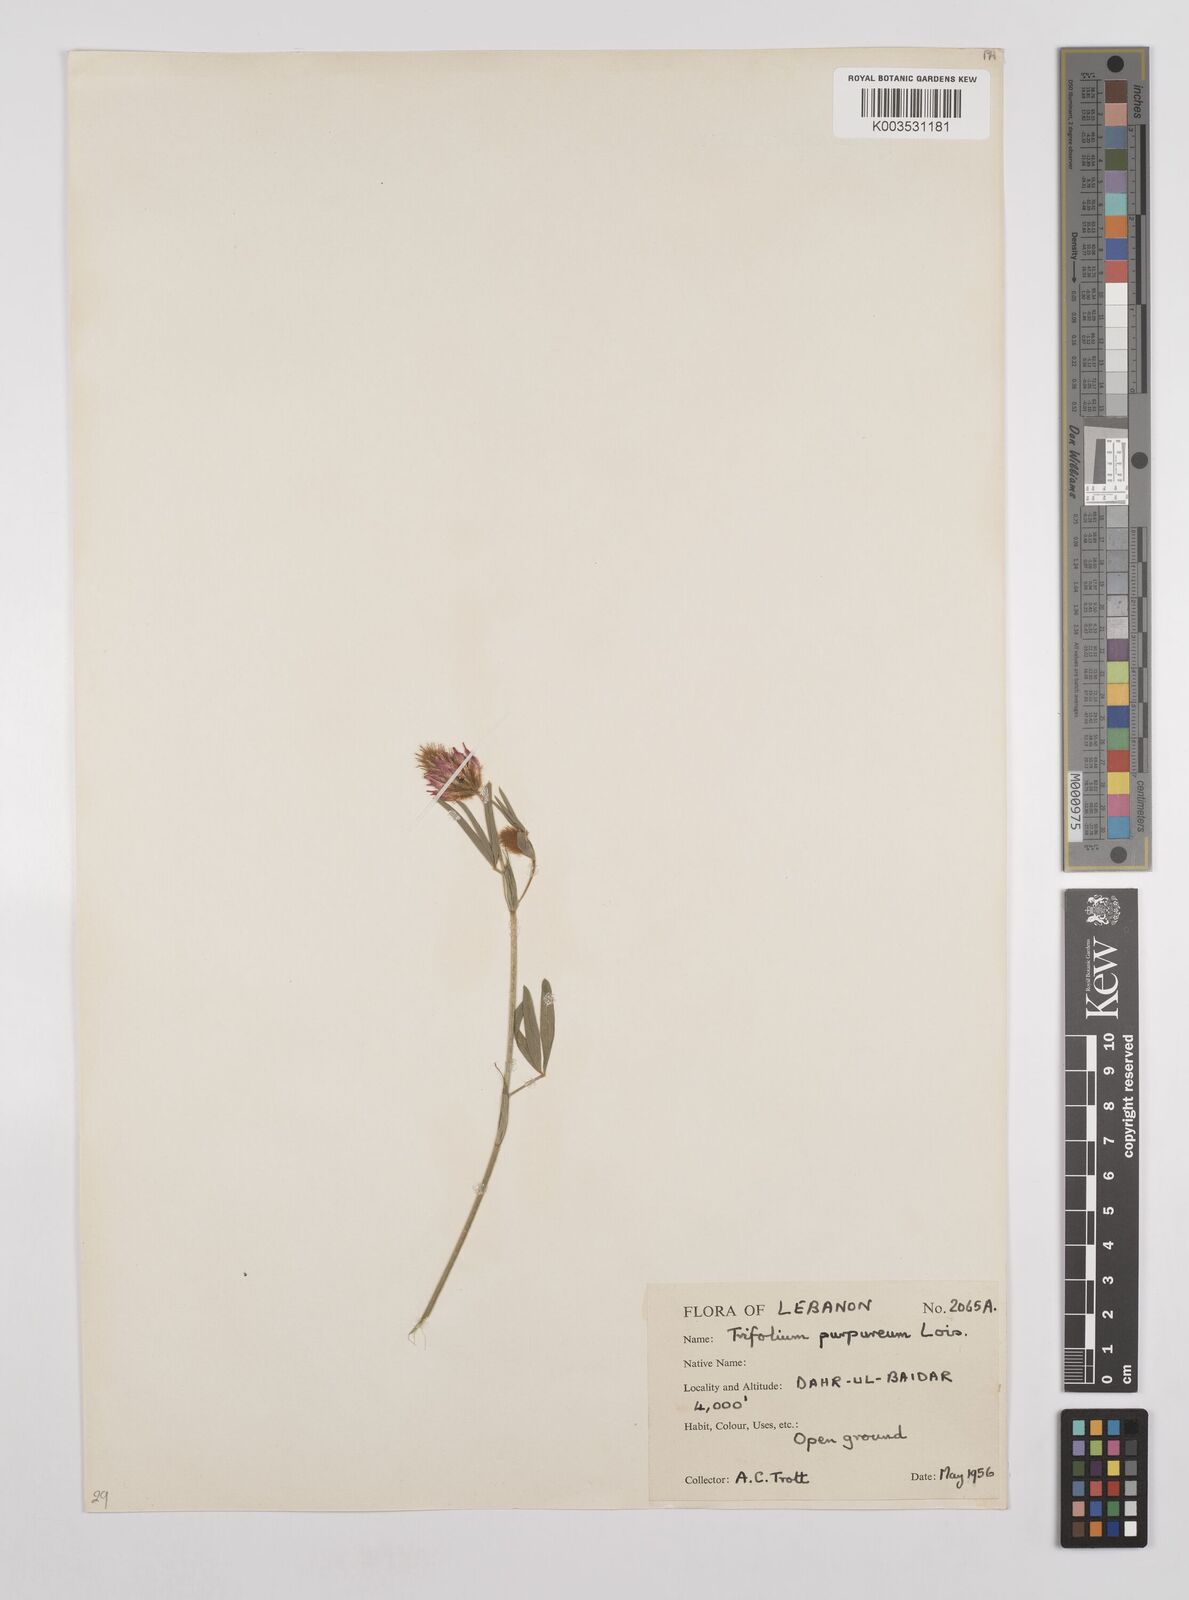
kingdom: Plantae
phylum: Tracheophyta
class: Magnoliopsida
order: Fabales
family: Fabaceae
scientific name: Fabaceae
